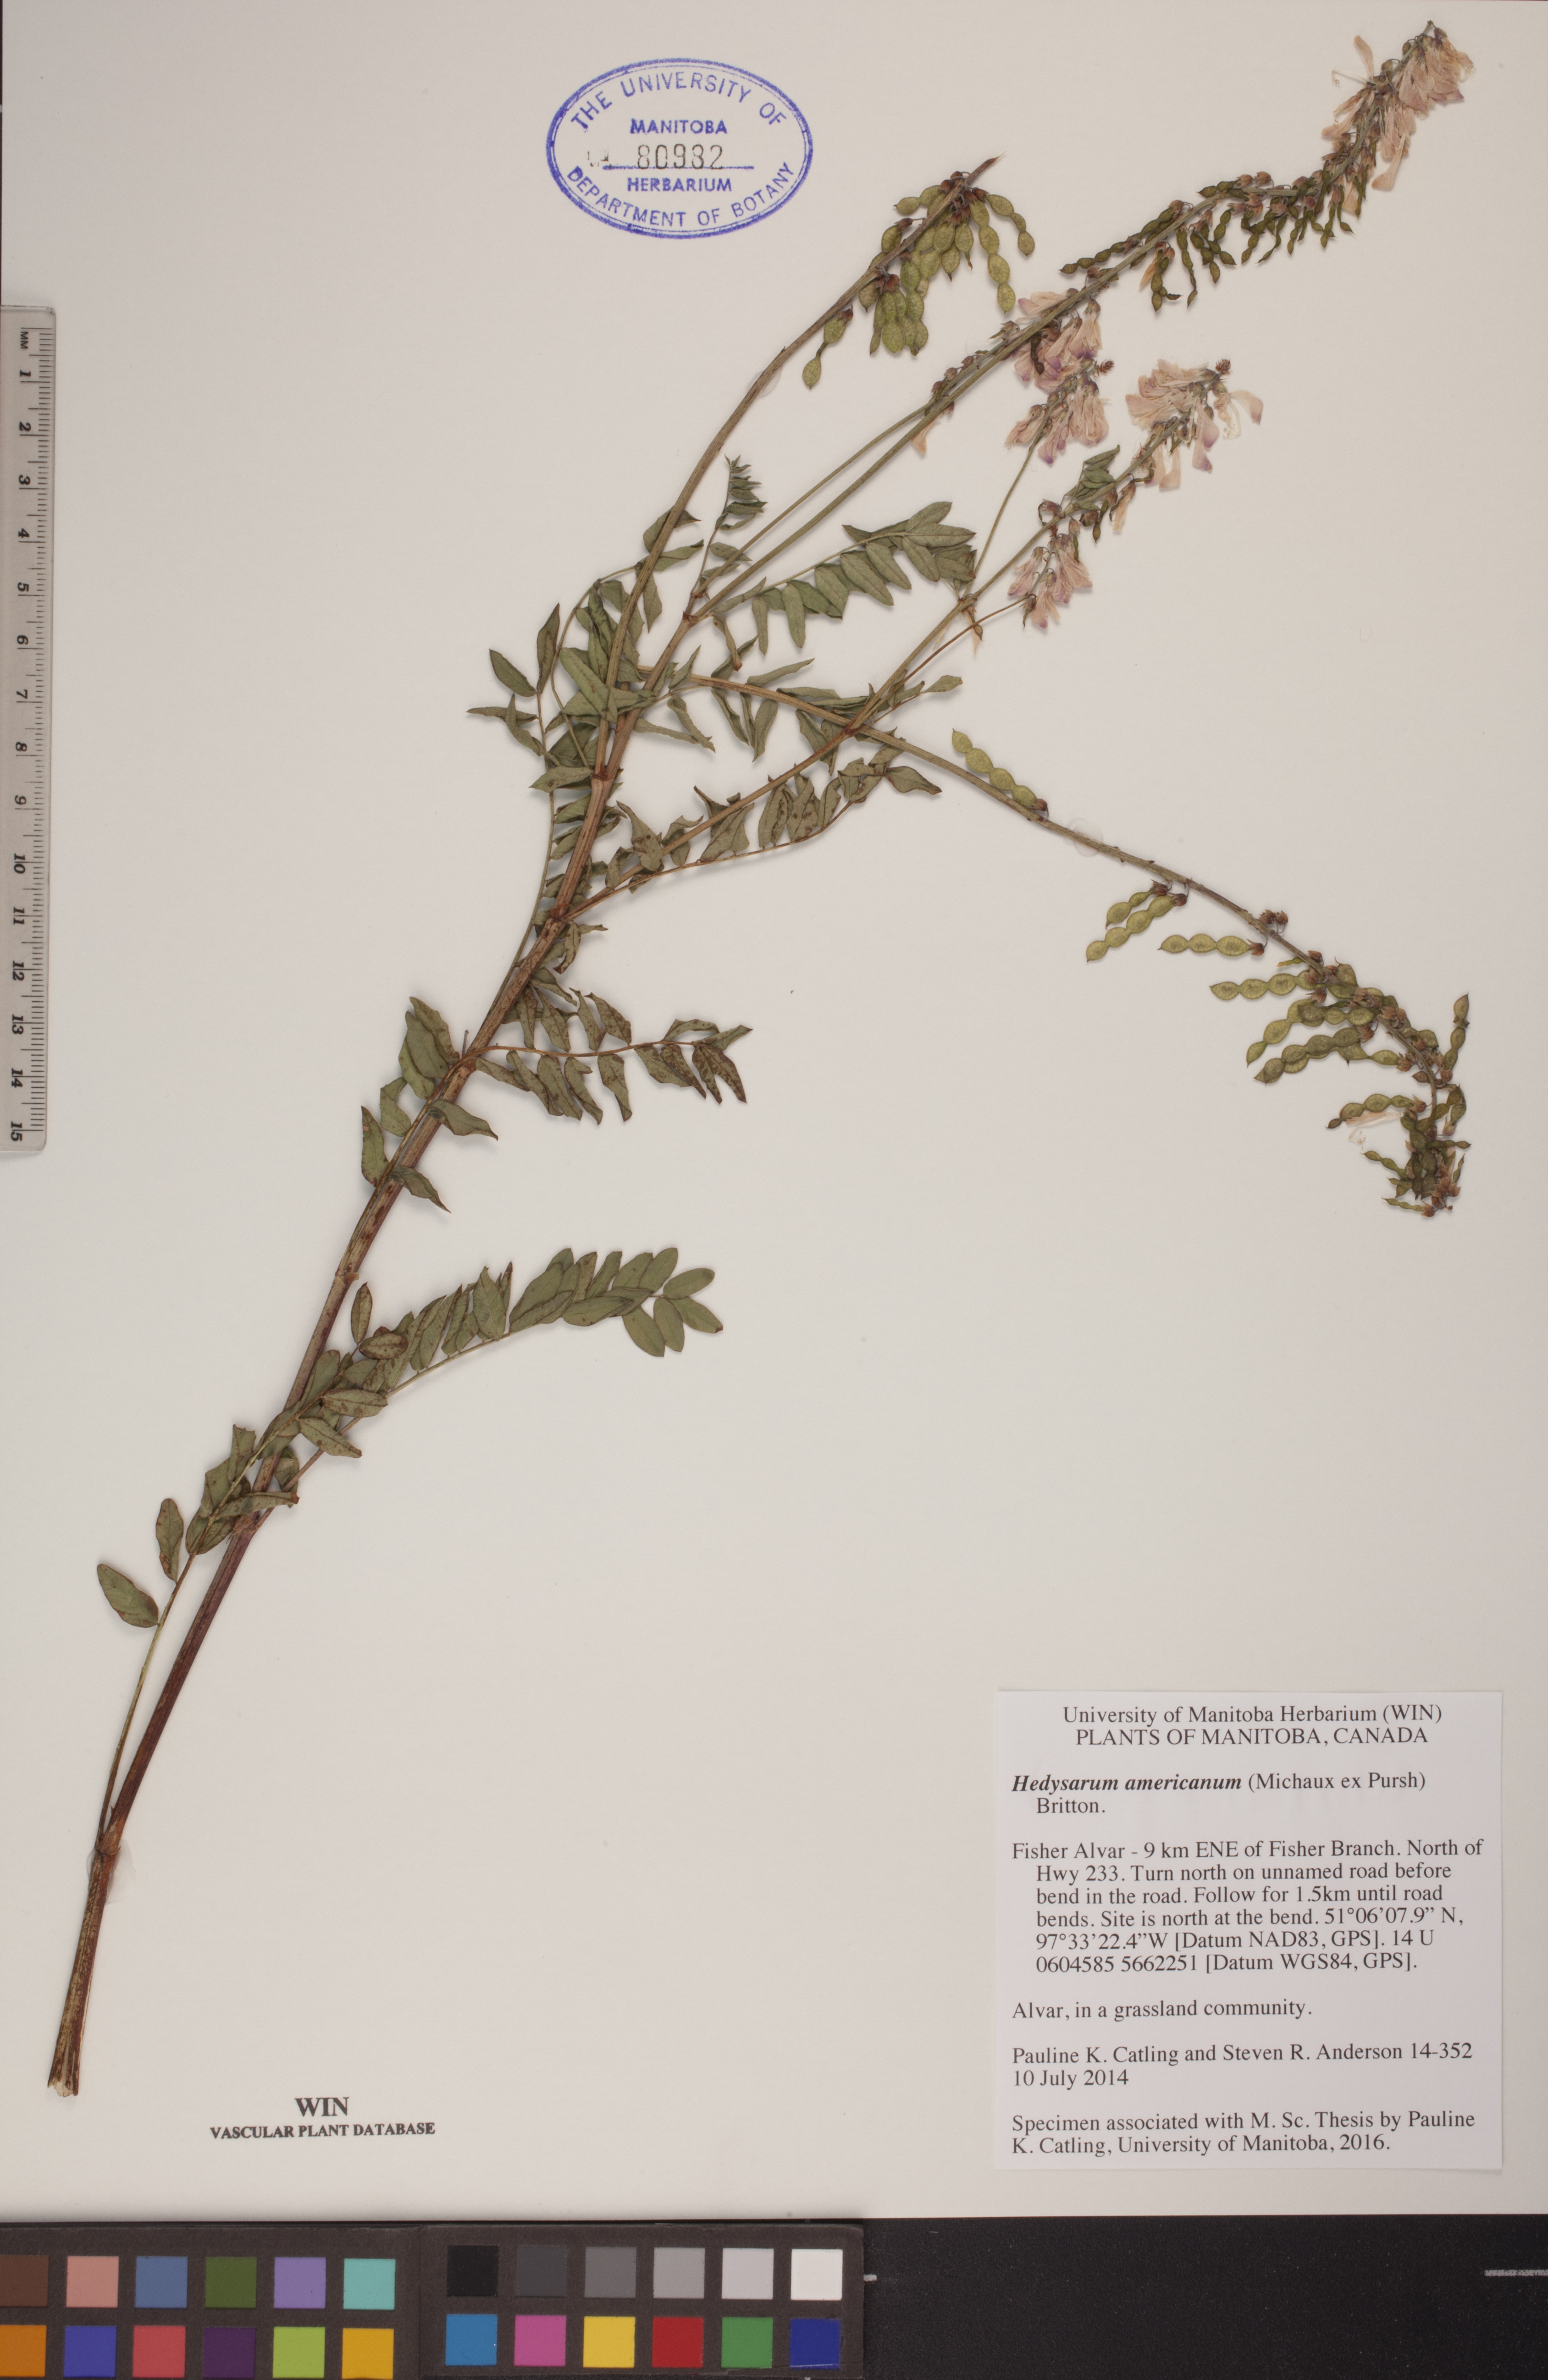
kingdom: Plantae
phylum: Tracheophyta
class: Magnoliopsida
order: Fabales
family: Fabaceae
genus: Hedysarum
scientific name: Hedysarum americanum
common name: Alpine hedysarum
